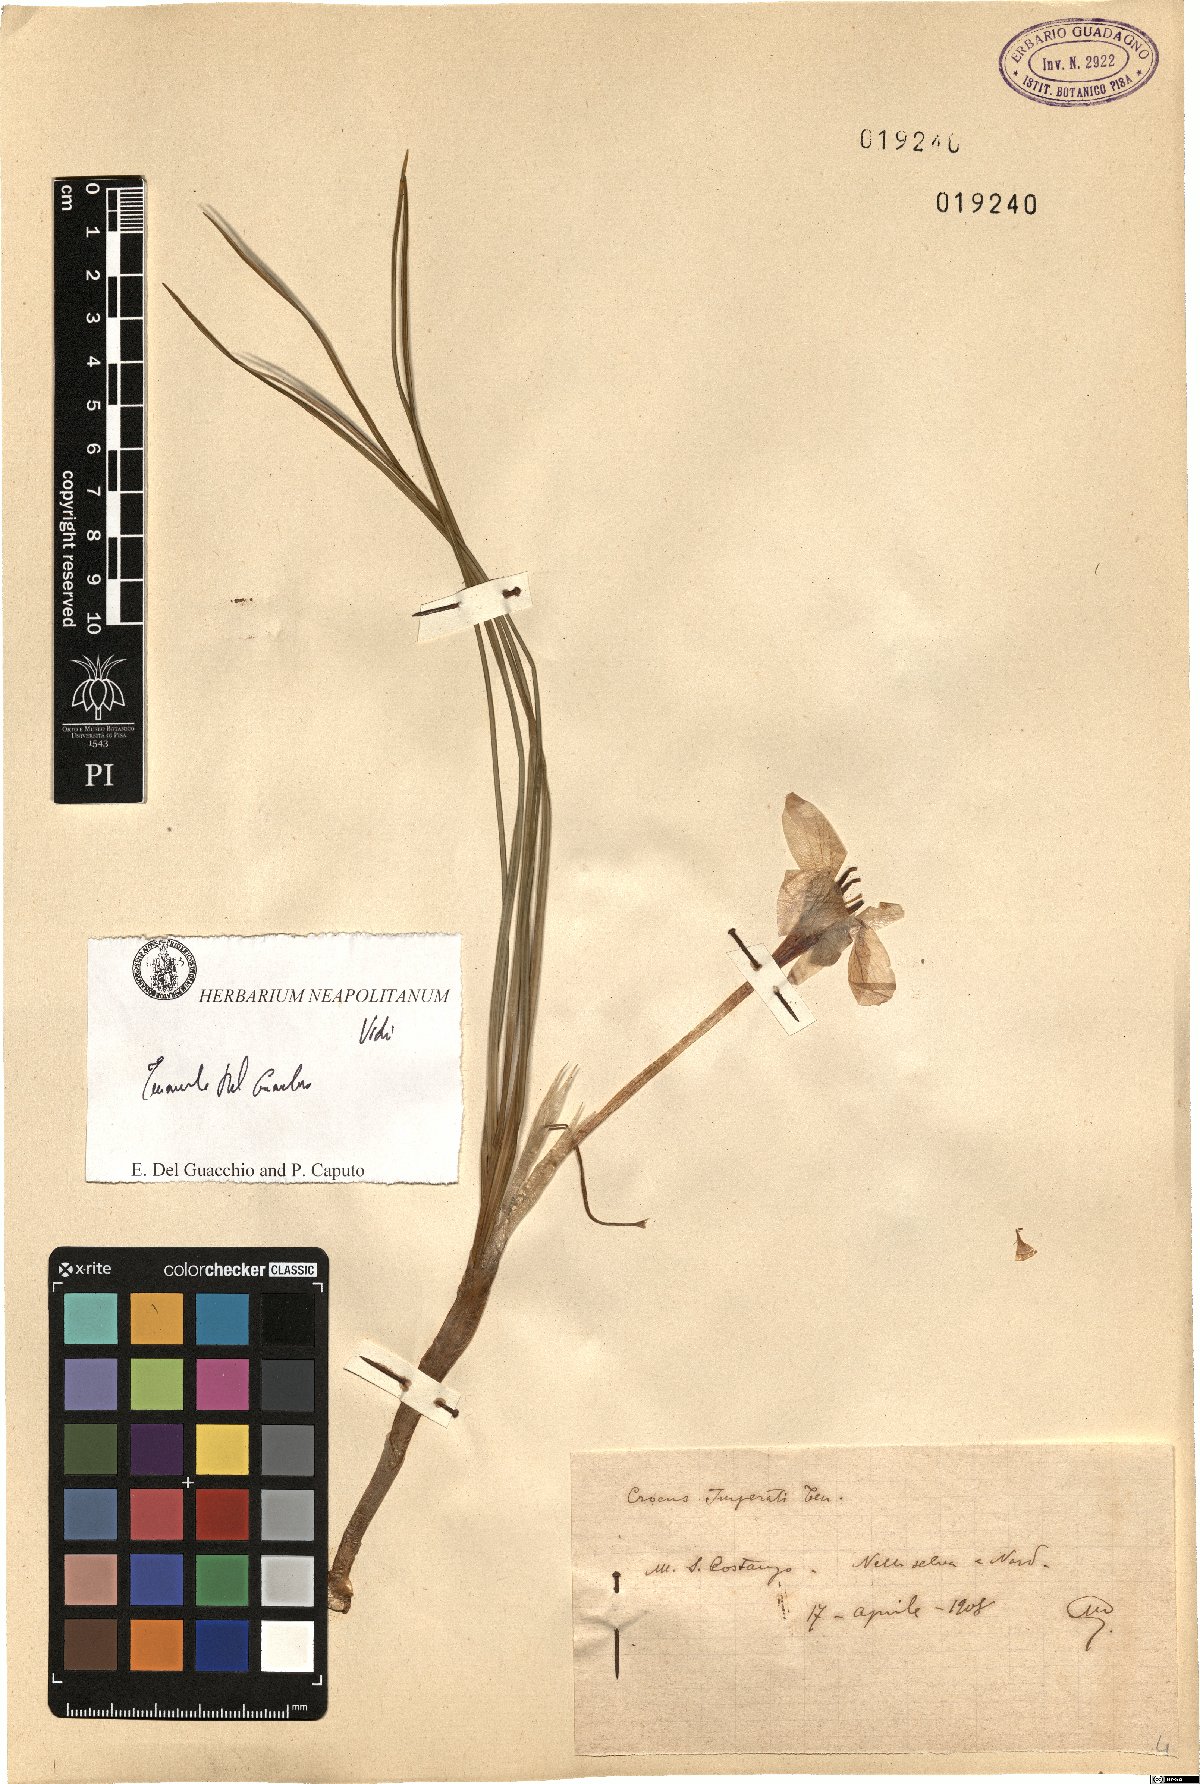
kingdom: Plantae
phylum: Tracheophyta
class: Liliopsida
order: Asparagales
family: Iridaceae
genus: Crocus
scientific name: Crocus imperati
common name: Early crocus
